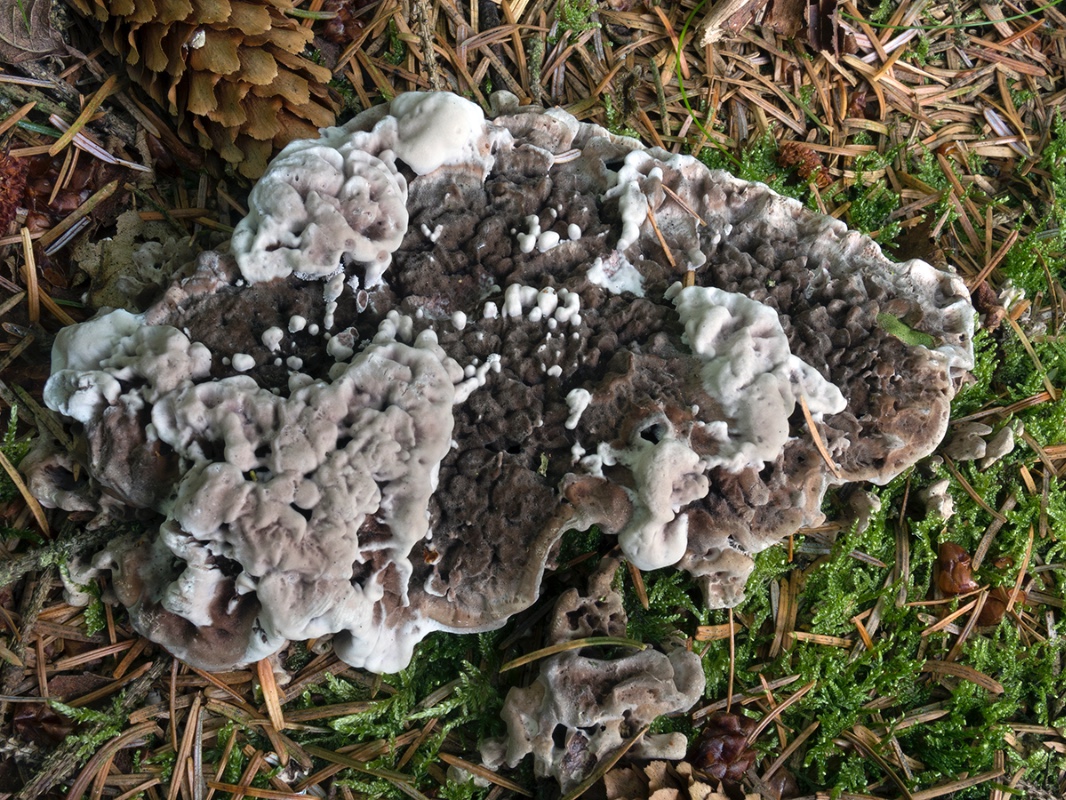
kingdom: Fungi
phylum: Basidiomycota
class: Agaricomycetes
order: Thelephorales
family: Thelephoraceae
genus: Phellodon
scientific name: Phellodon tomentosus
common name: vellugtende duftpigsvamp
